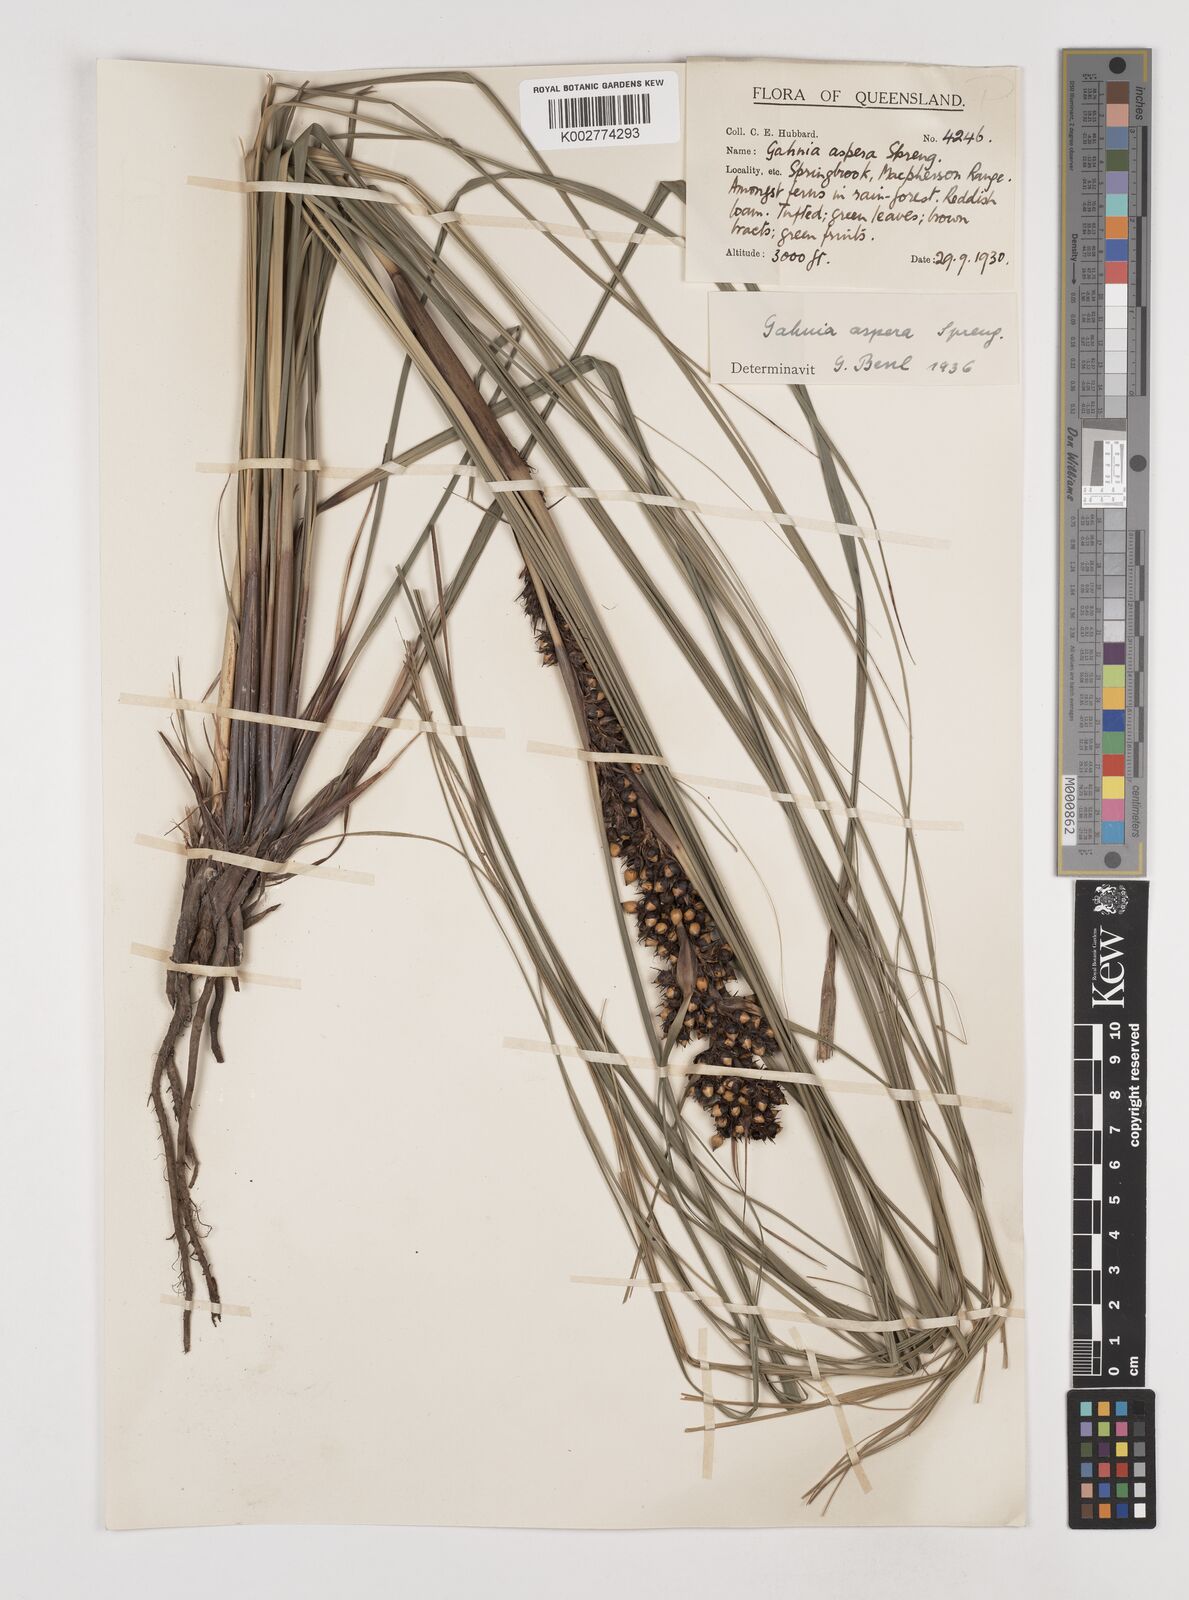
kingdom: Plantae
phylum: Tracheophyta
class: Liliopsida
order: Poales
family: Cyperaceae
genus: Gahnia
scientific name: Gahnia aspera
